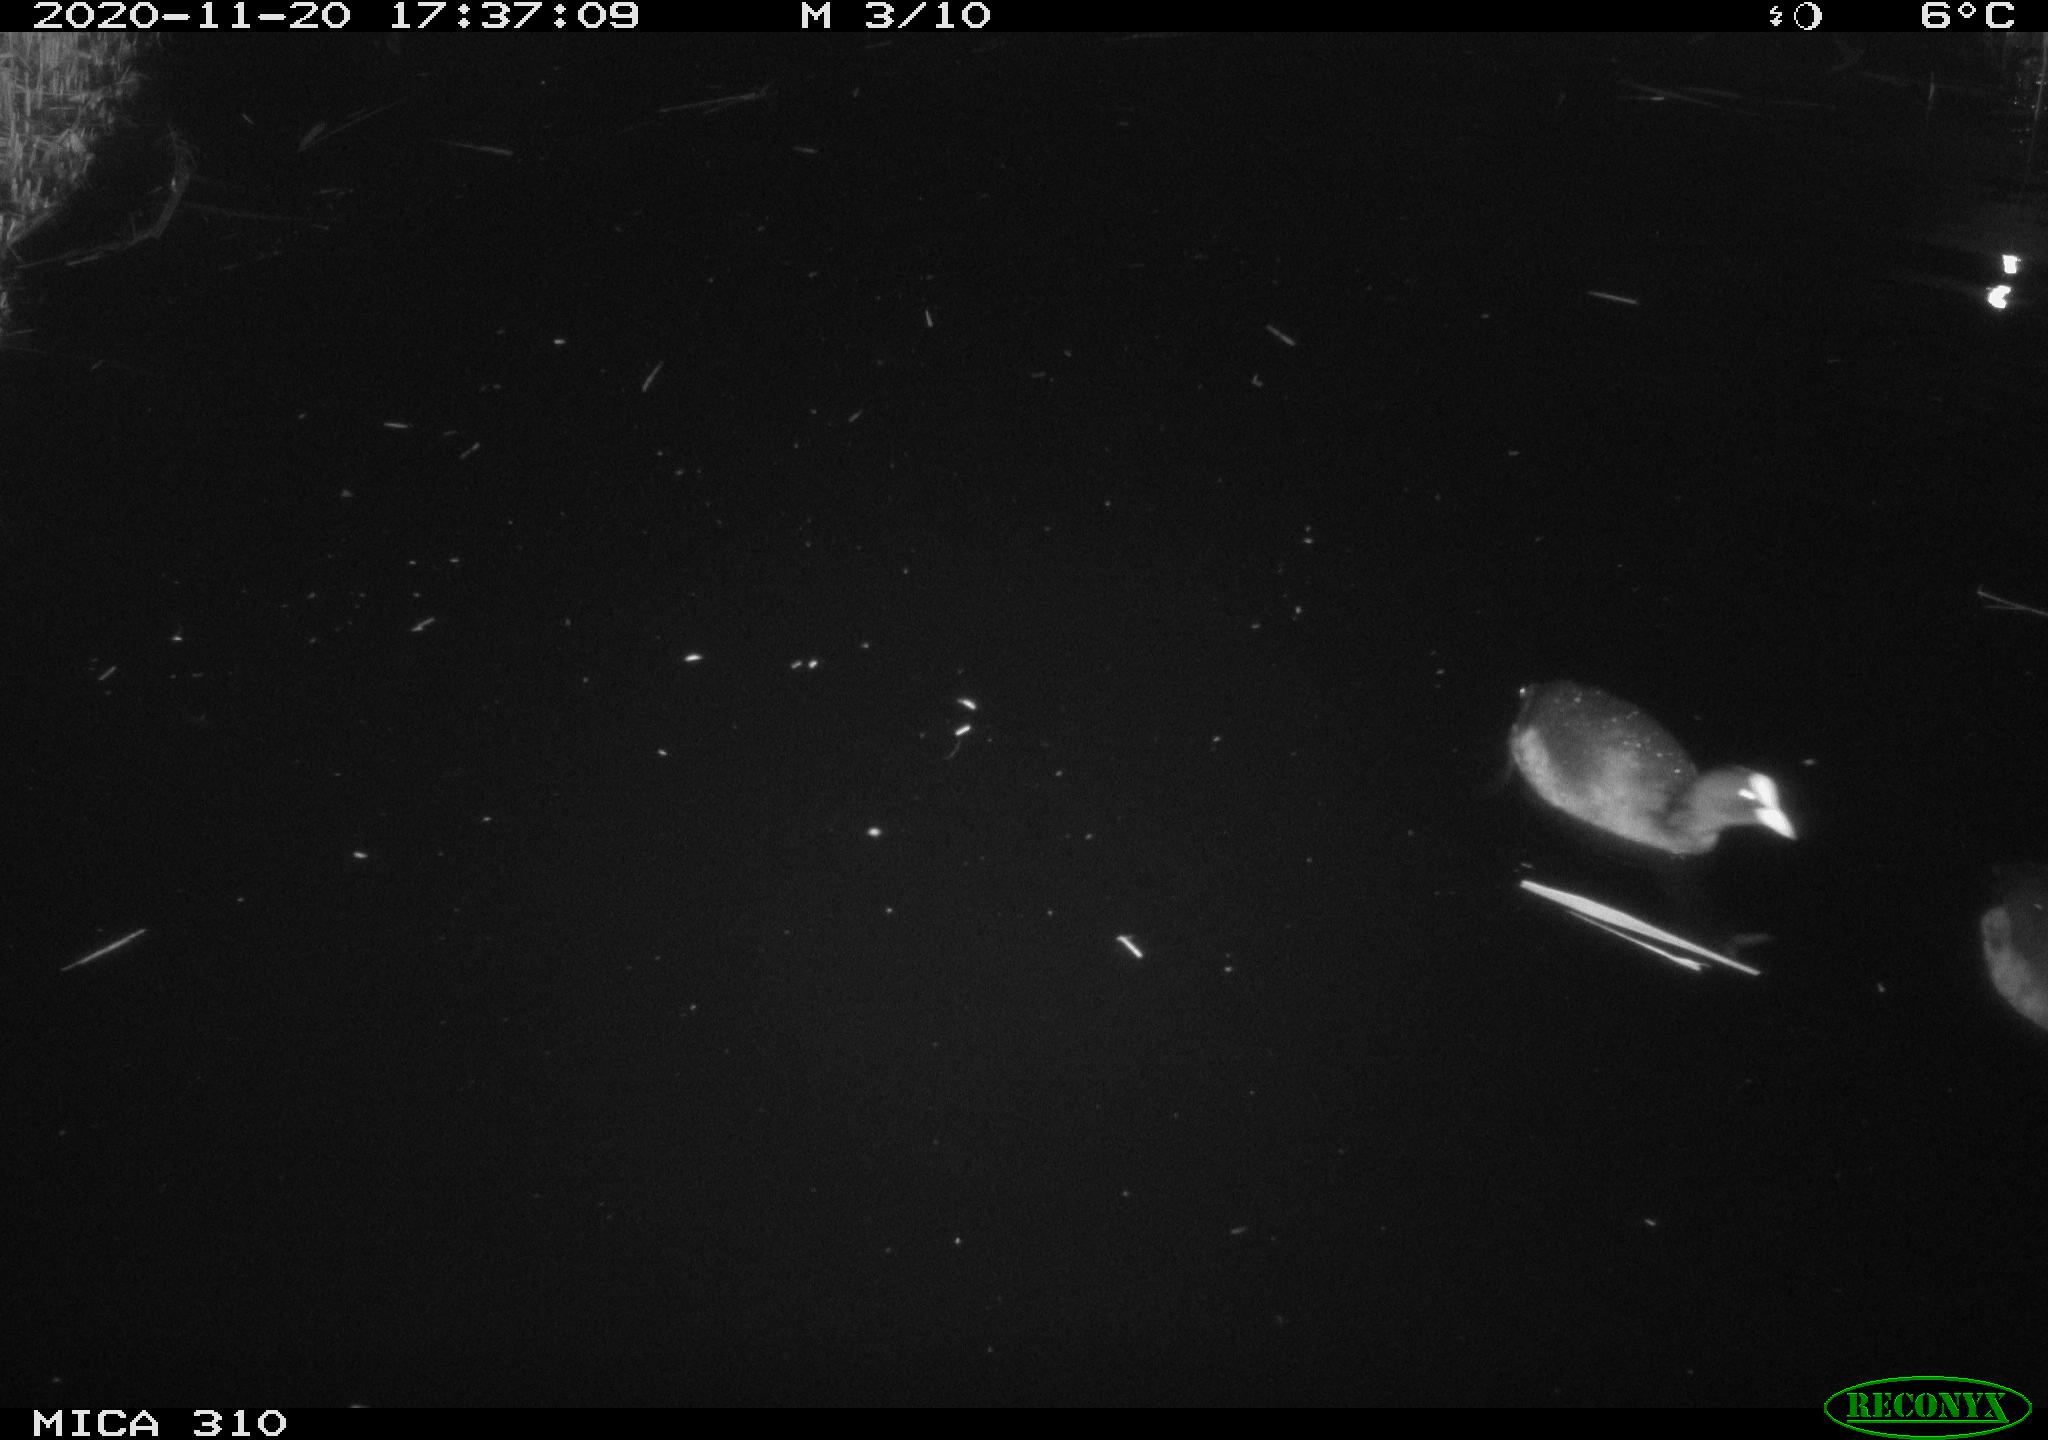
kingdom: Animalia
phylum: Chordata
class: Aves
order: Gruiformes
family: Rallidae
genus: Fulica
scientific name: Fulica atra
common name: Eurasian coot
